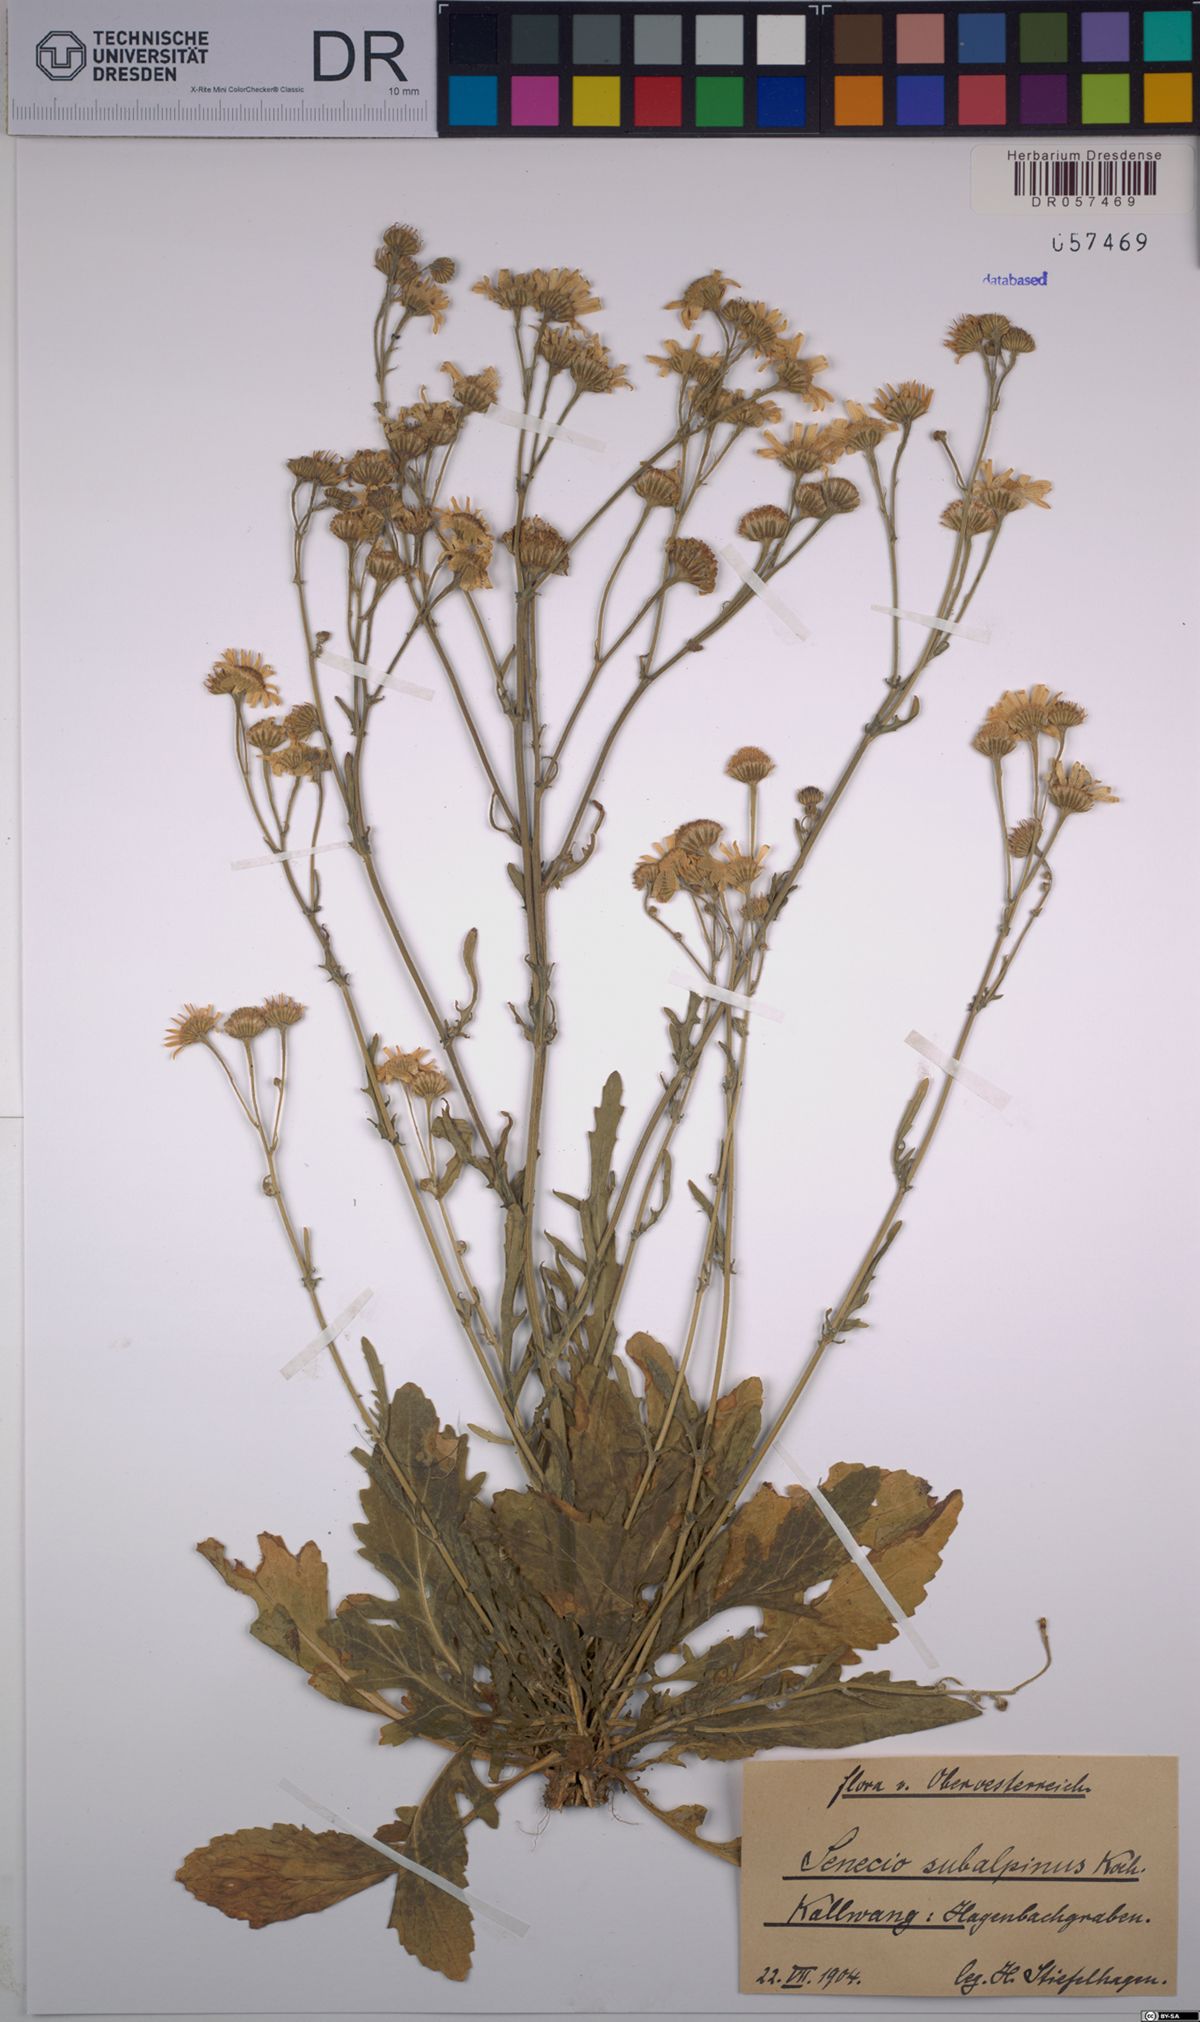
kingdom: Plantae
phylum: Tracheophyta
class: Magnoliopsida
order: Asterales
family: Asteraceae
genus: Jacobaea
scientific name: Jacobaea subalpina
